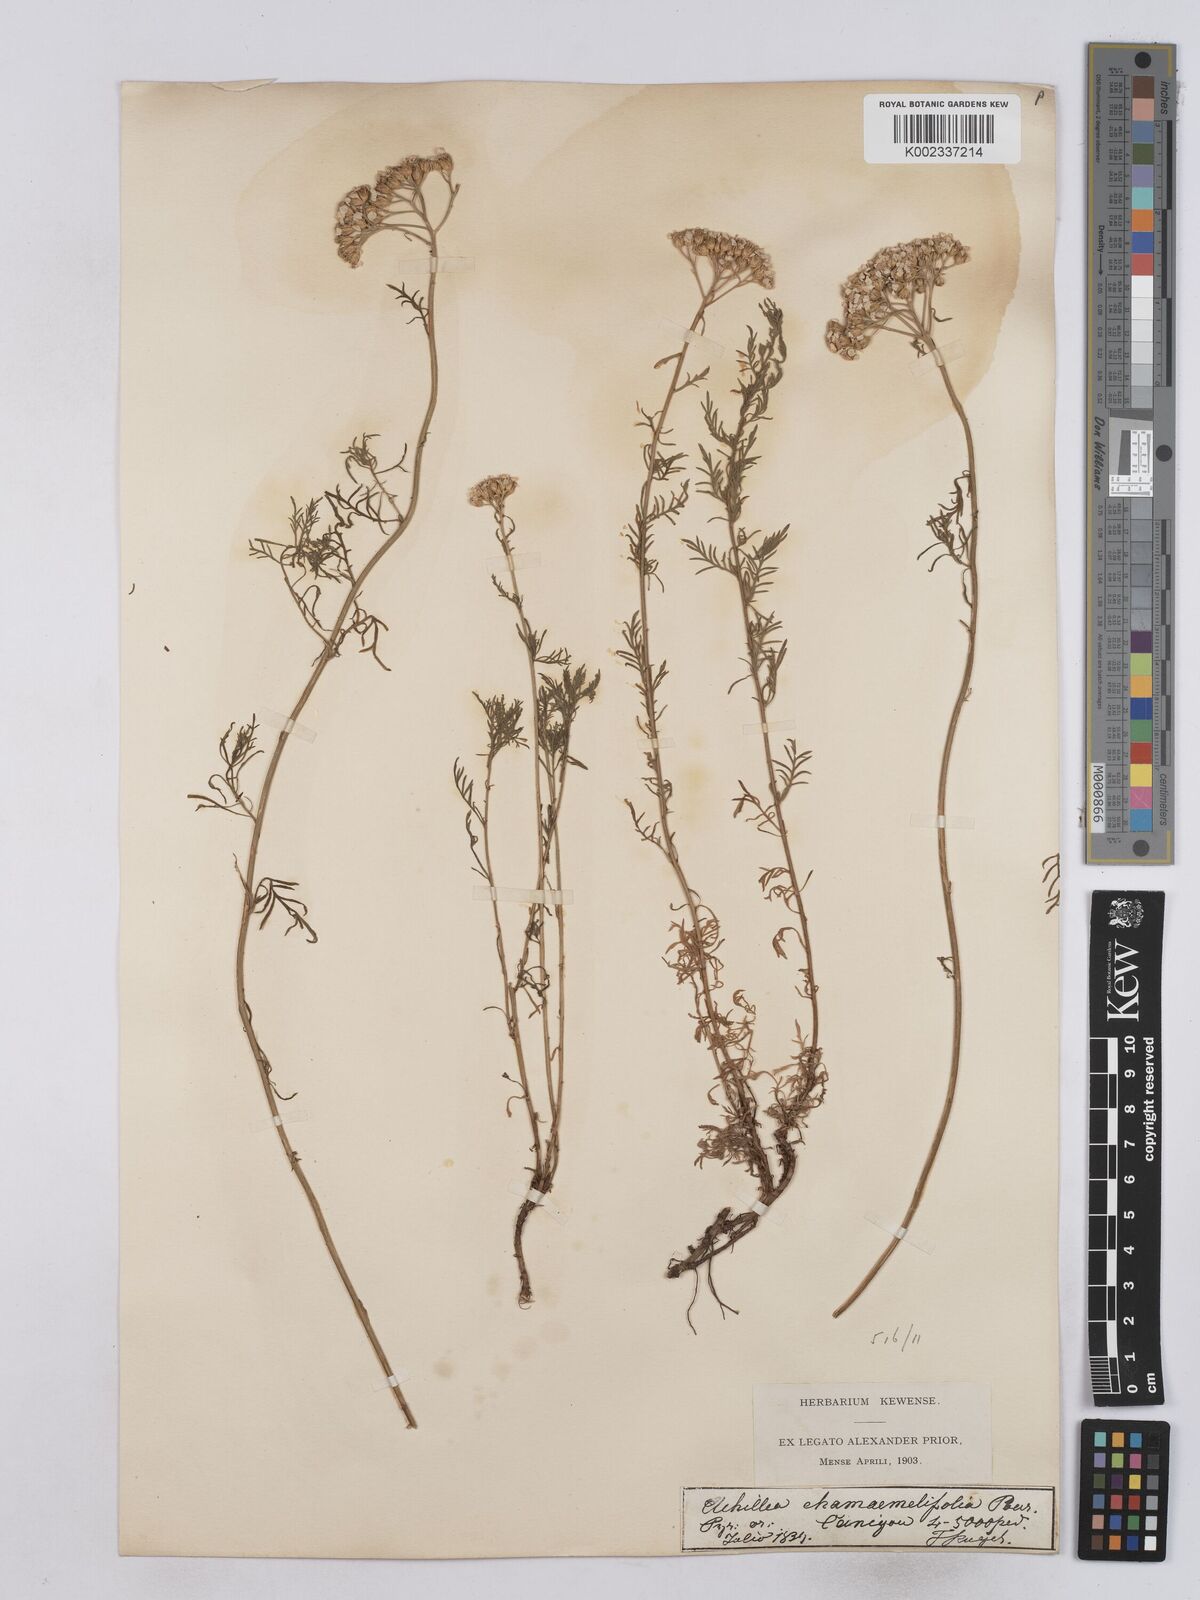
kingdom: Plantae
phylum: Tracheophyta
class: Magnoliopsida
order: Asterales
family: Asteraceae
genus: Achillea
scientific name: Achillea chamaemelifolia
